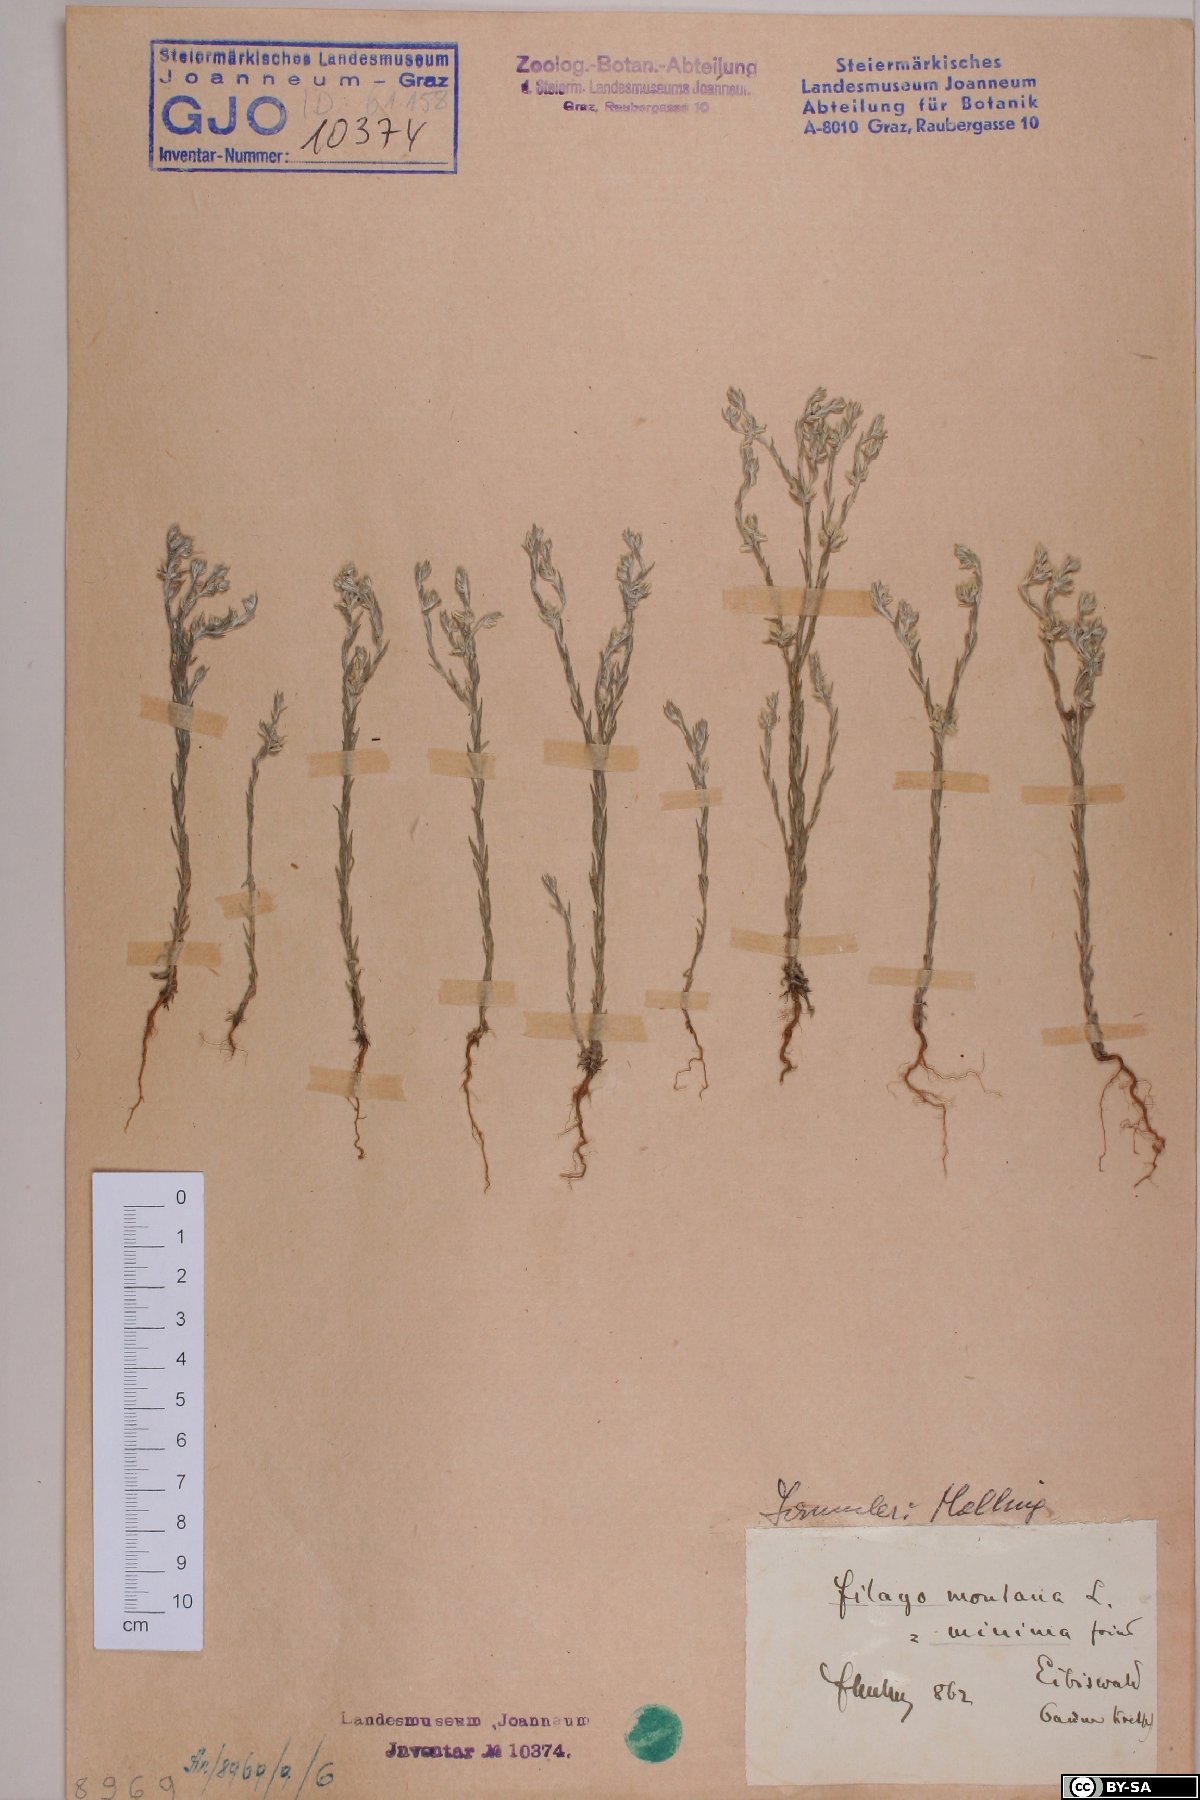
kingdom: Plantae
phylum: Tracheophyta
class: Magnoliopsida
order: Asterales
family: Asteraceae
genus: Logfia
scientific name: Logfia minima
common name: Little cottonrose
